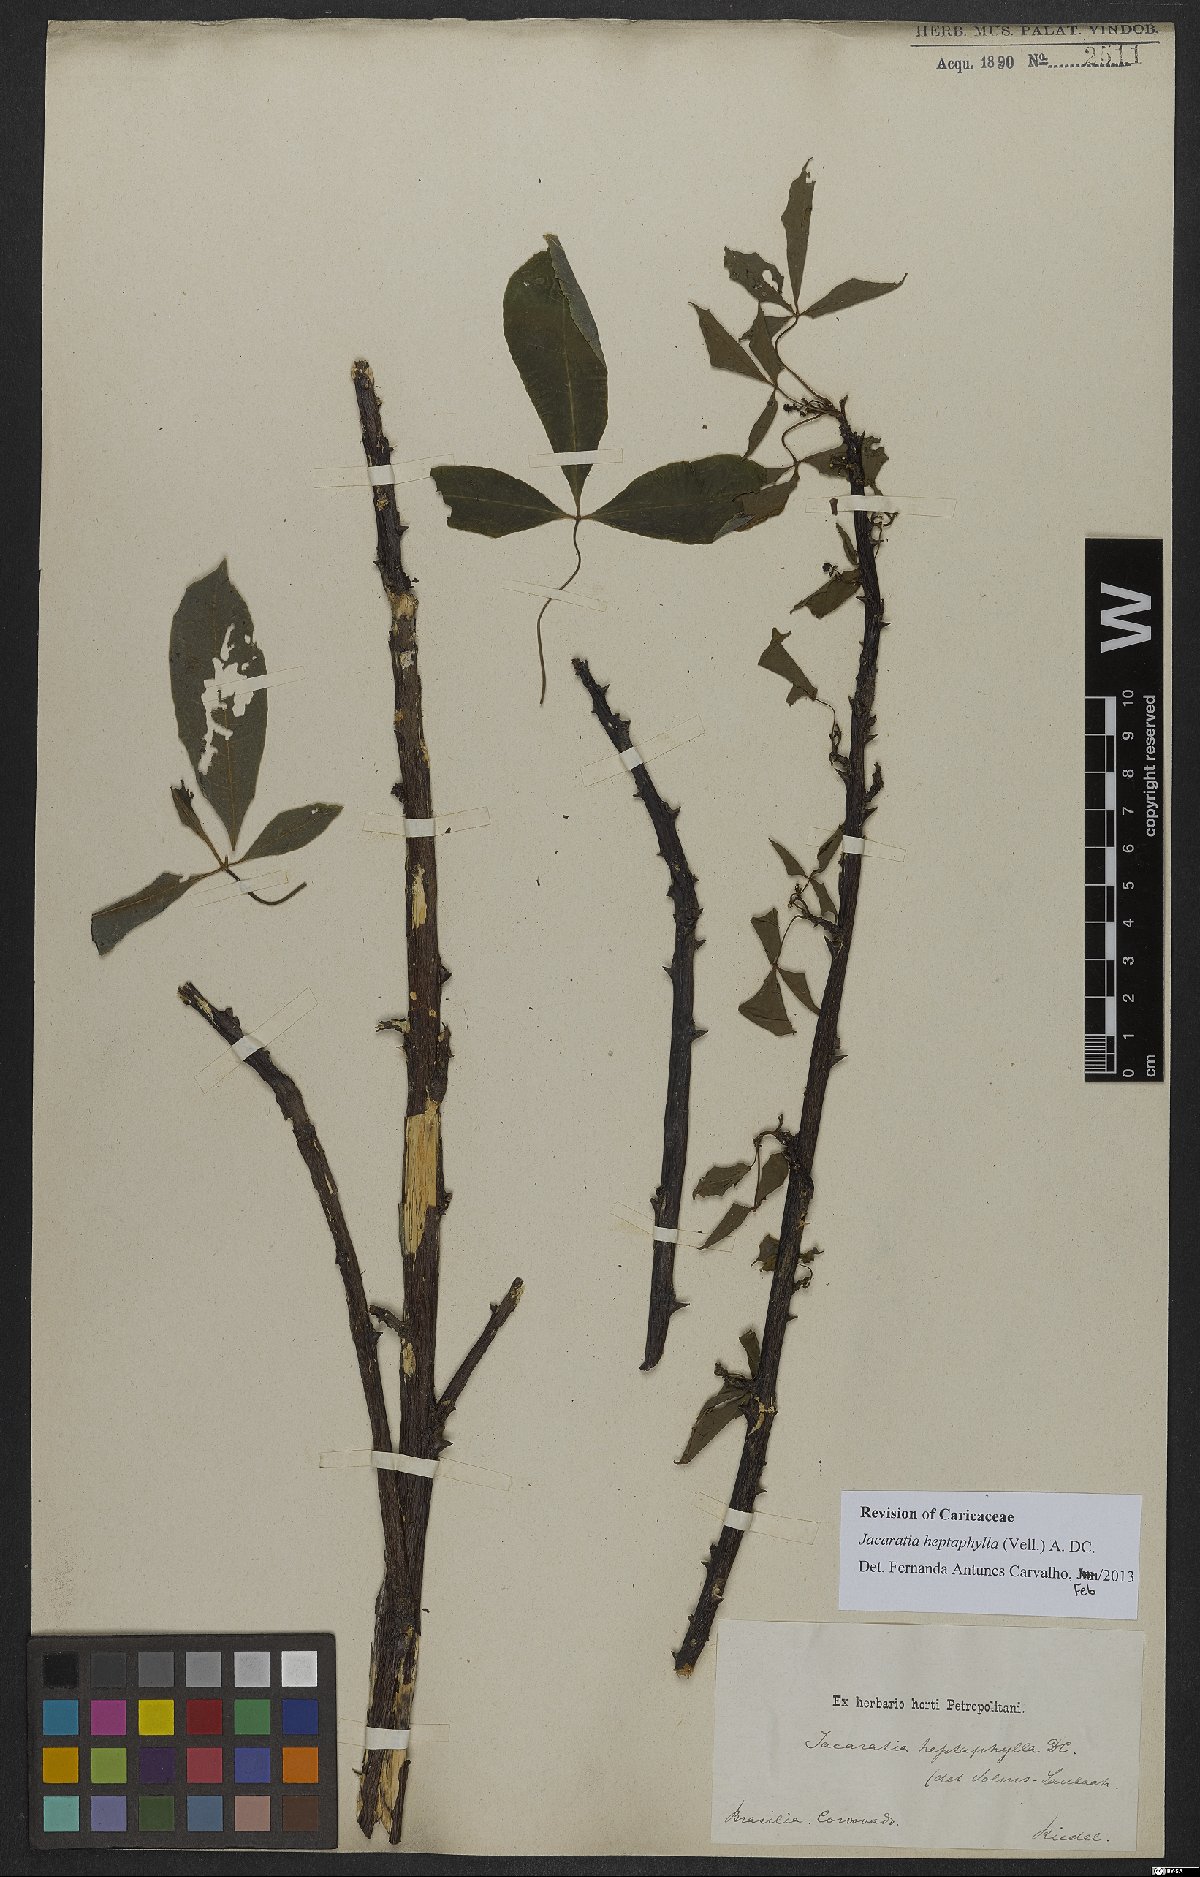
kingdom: Plantae
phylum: Tracheophyta
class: Magnoliopsida
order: Brassicales
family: Caricaceae
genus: Jacaratia
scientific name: Jacaratia heptaphylla
